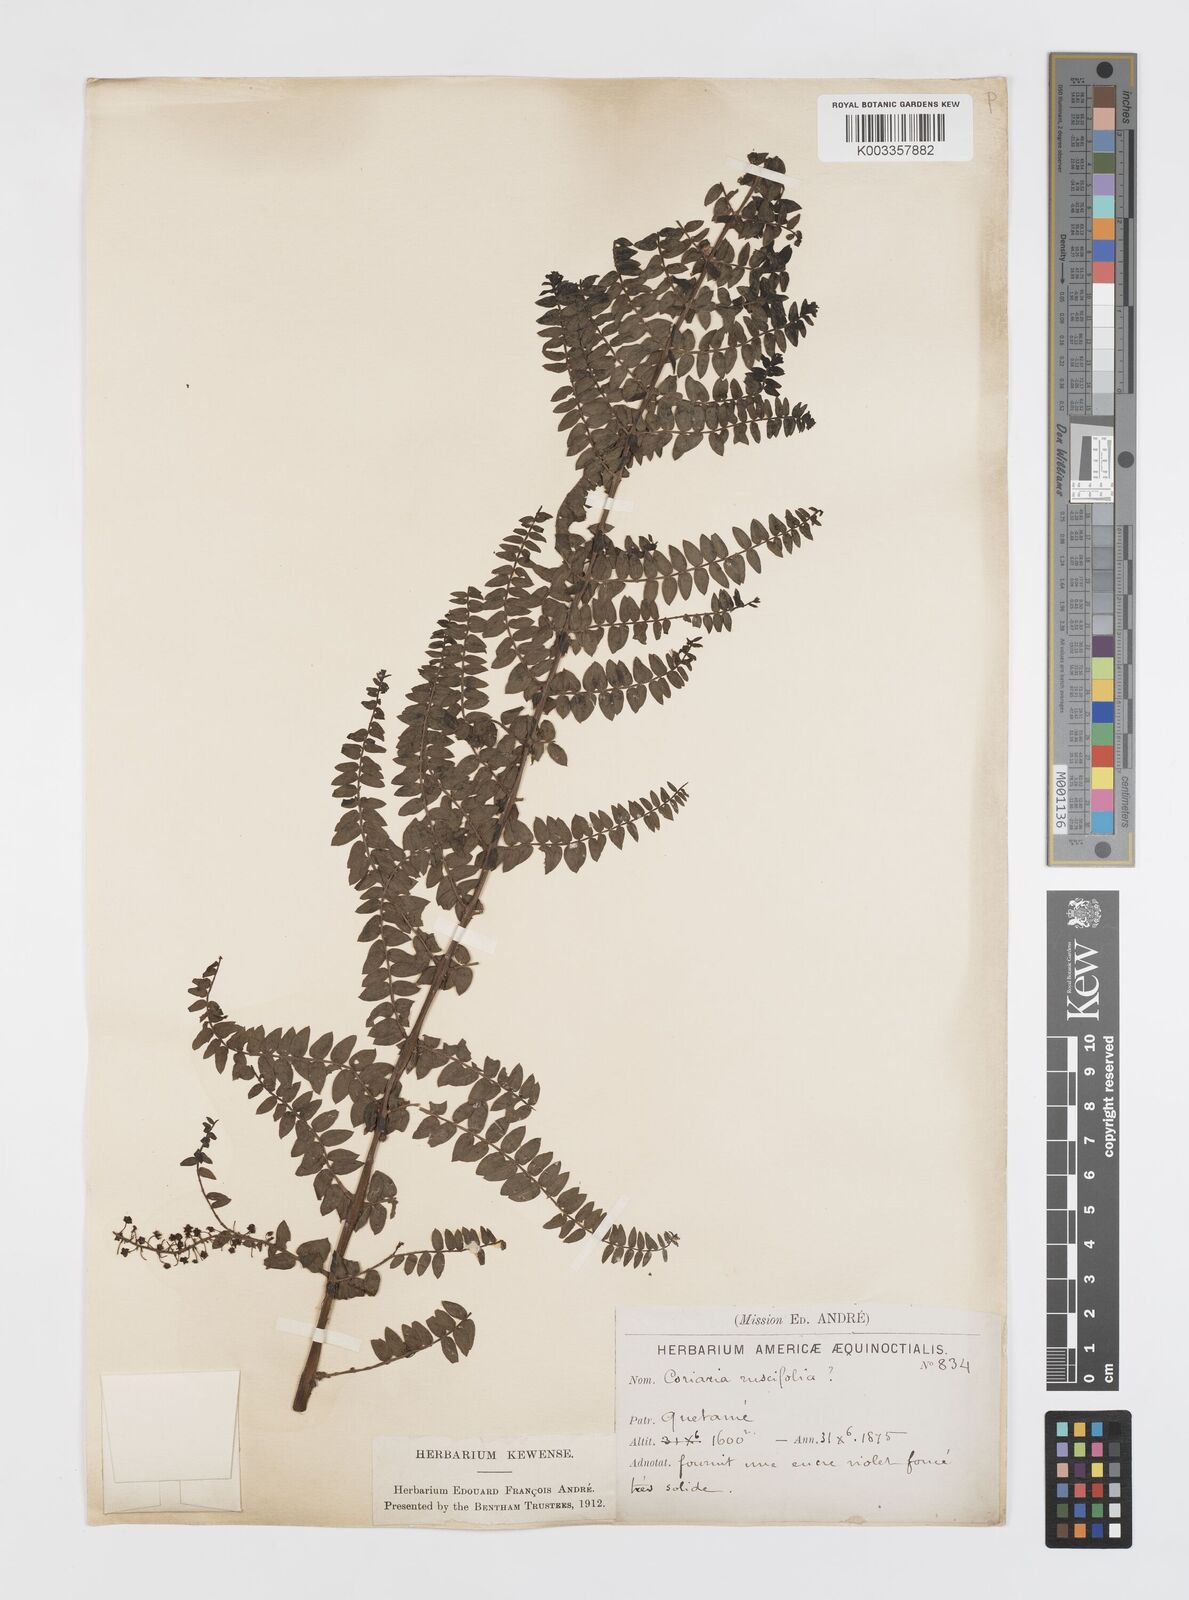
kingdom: Plantae
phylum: Tracheophyta
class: Magnoliopsida
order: Cucurbitales
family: Coriariaceae
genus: Coriaria
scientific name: Coriaria microphylla
